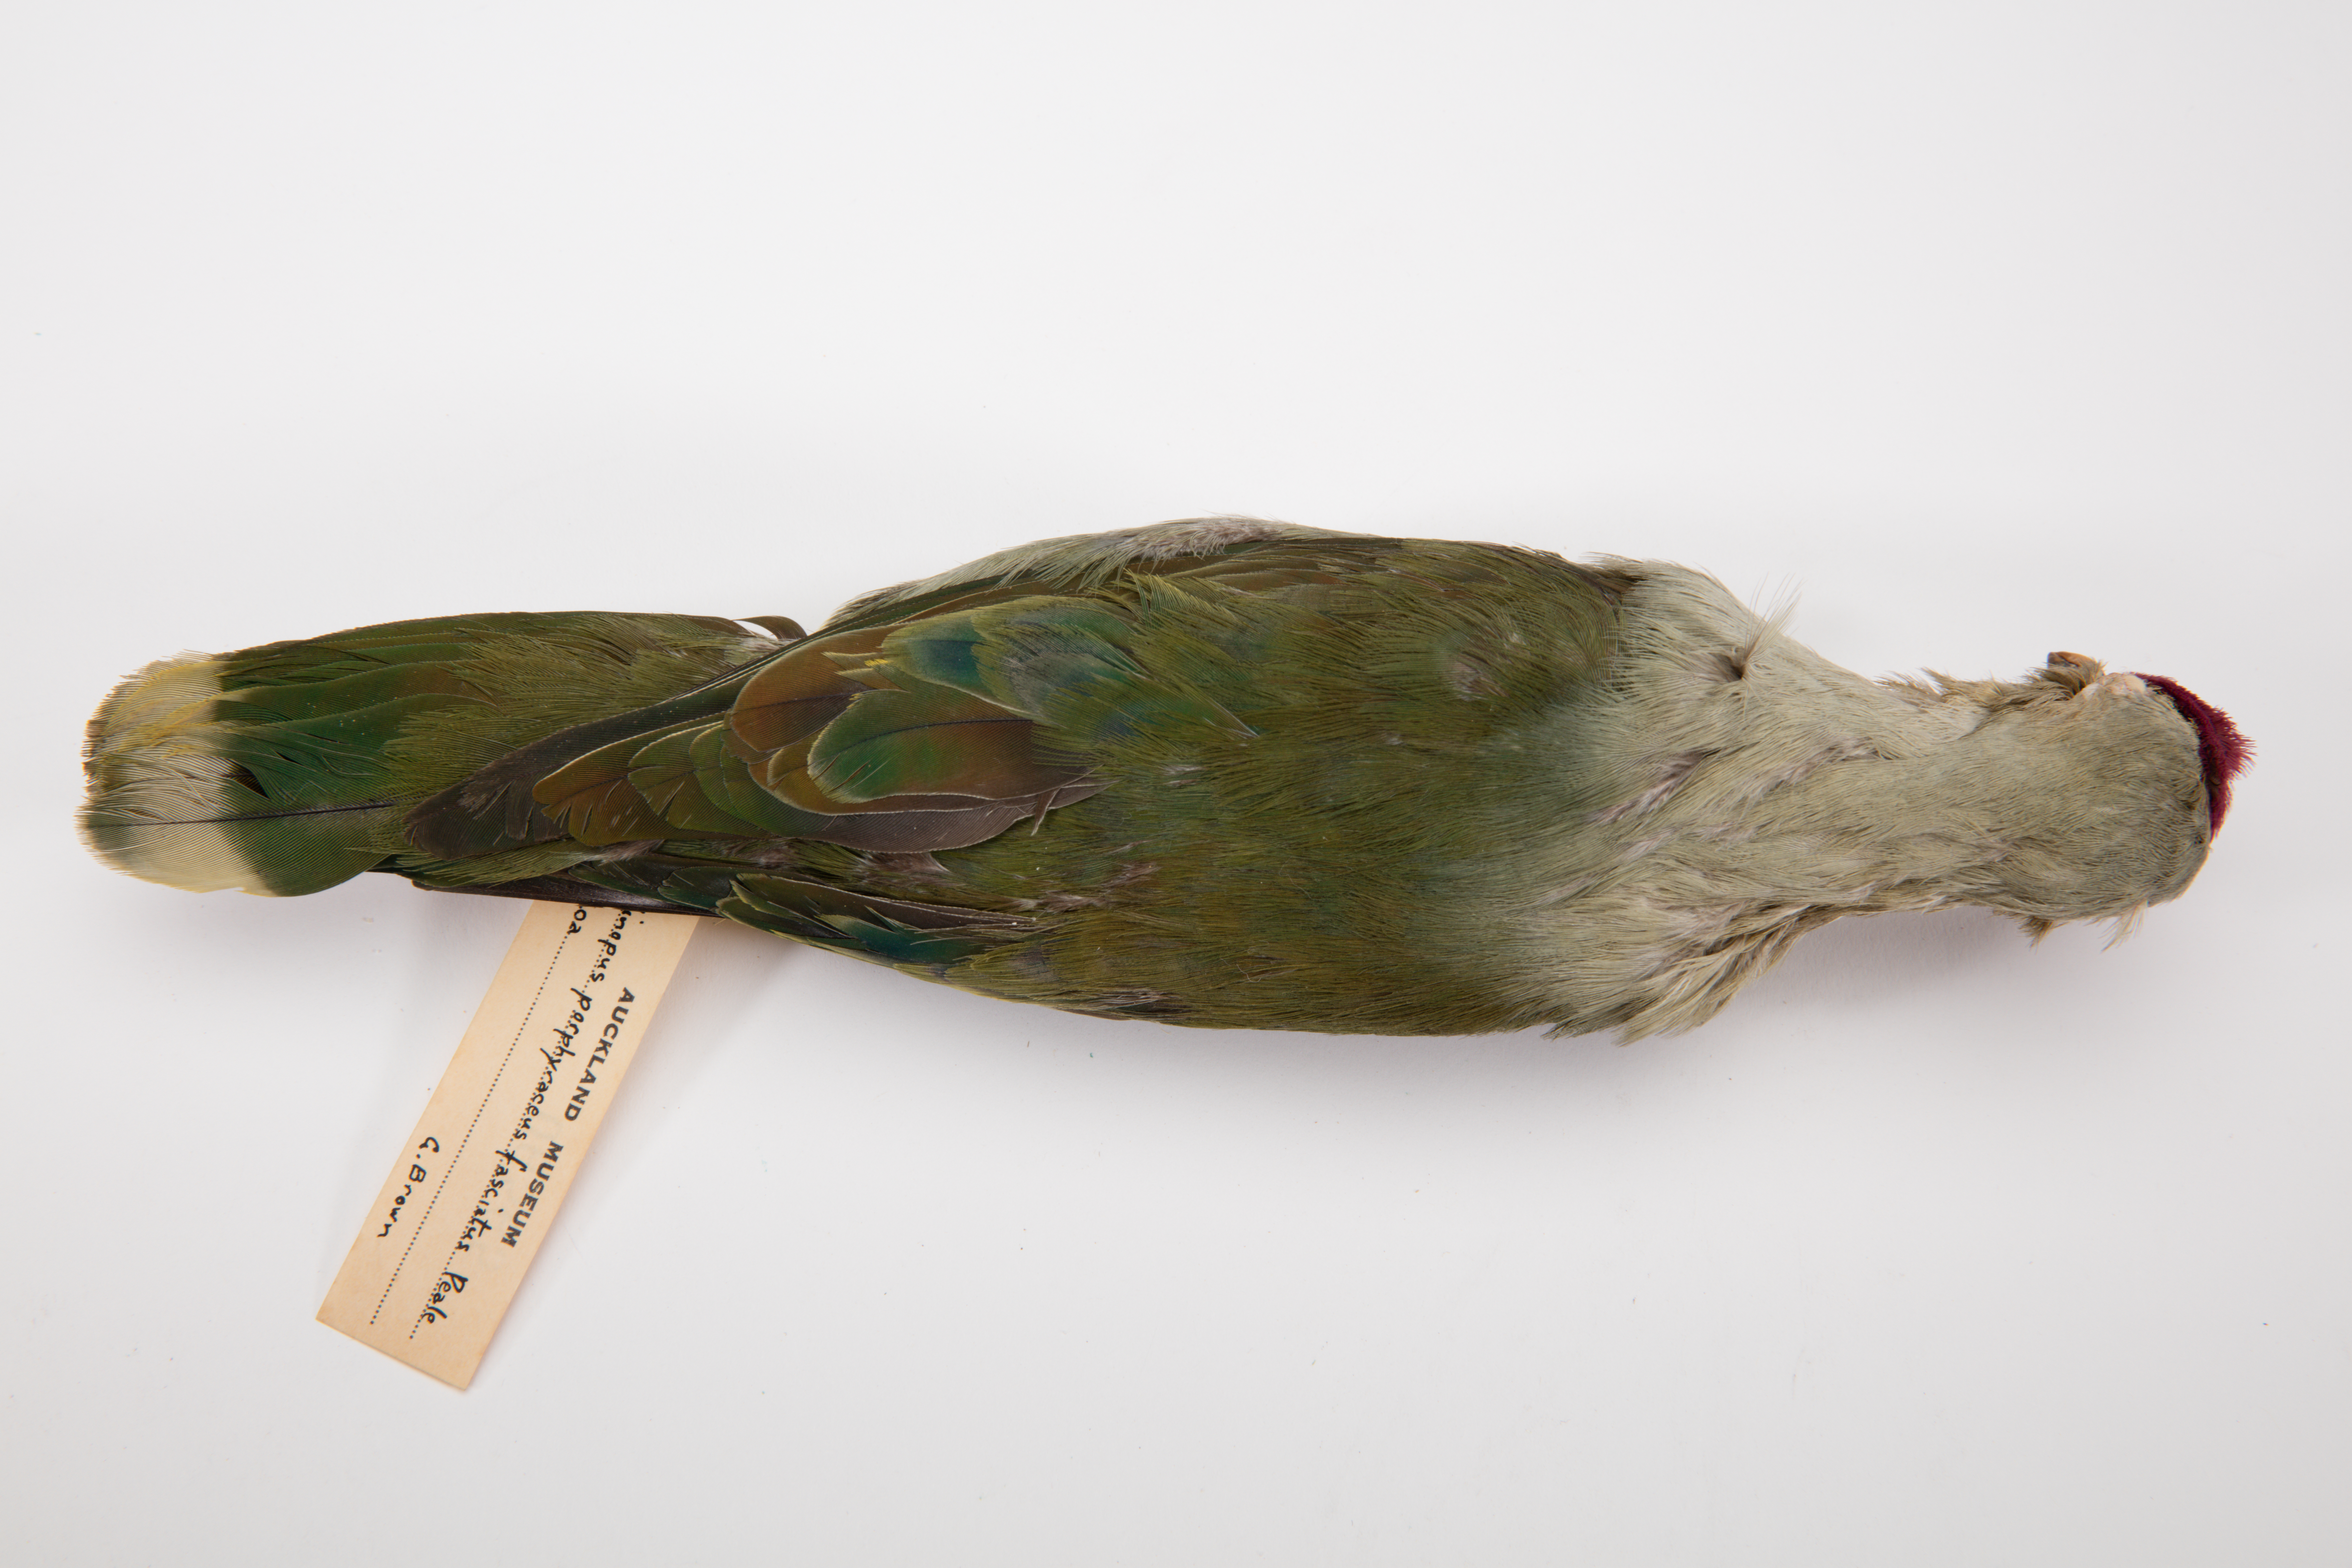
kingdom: Animalia
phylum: Chordata
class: Aves
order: Columbiformes
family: Columbidae
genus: Ptilinopus
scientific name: Ptilinopus porphyraceus
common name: Crimson-crowned fruit dove
